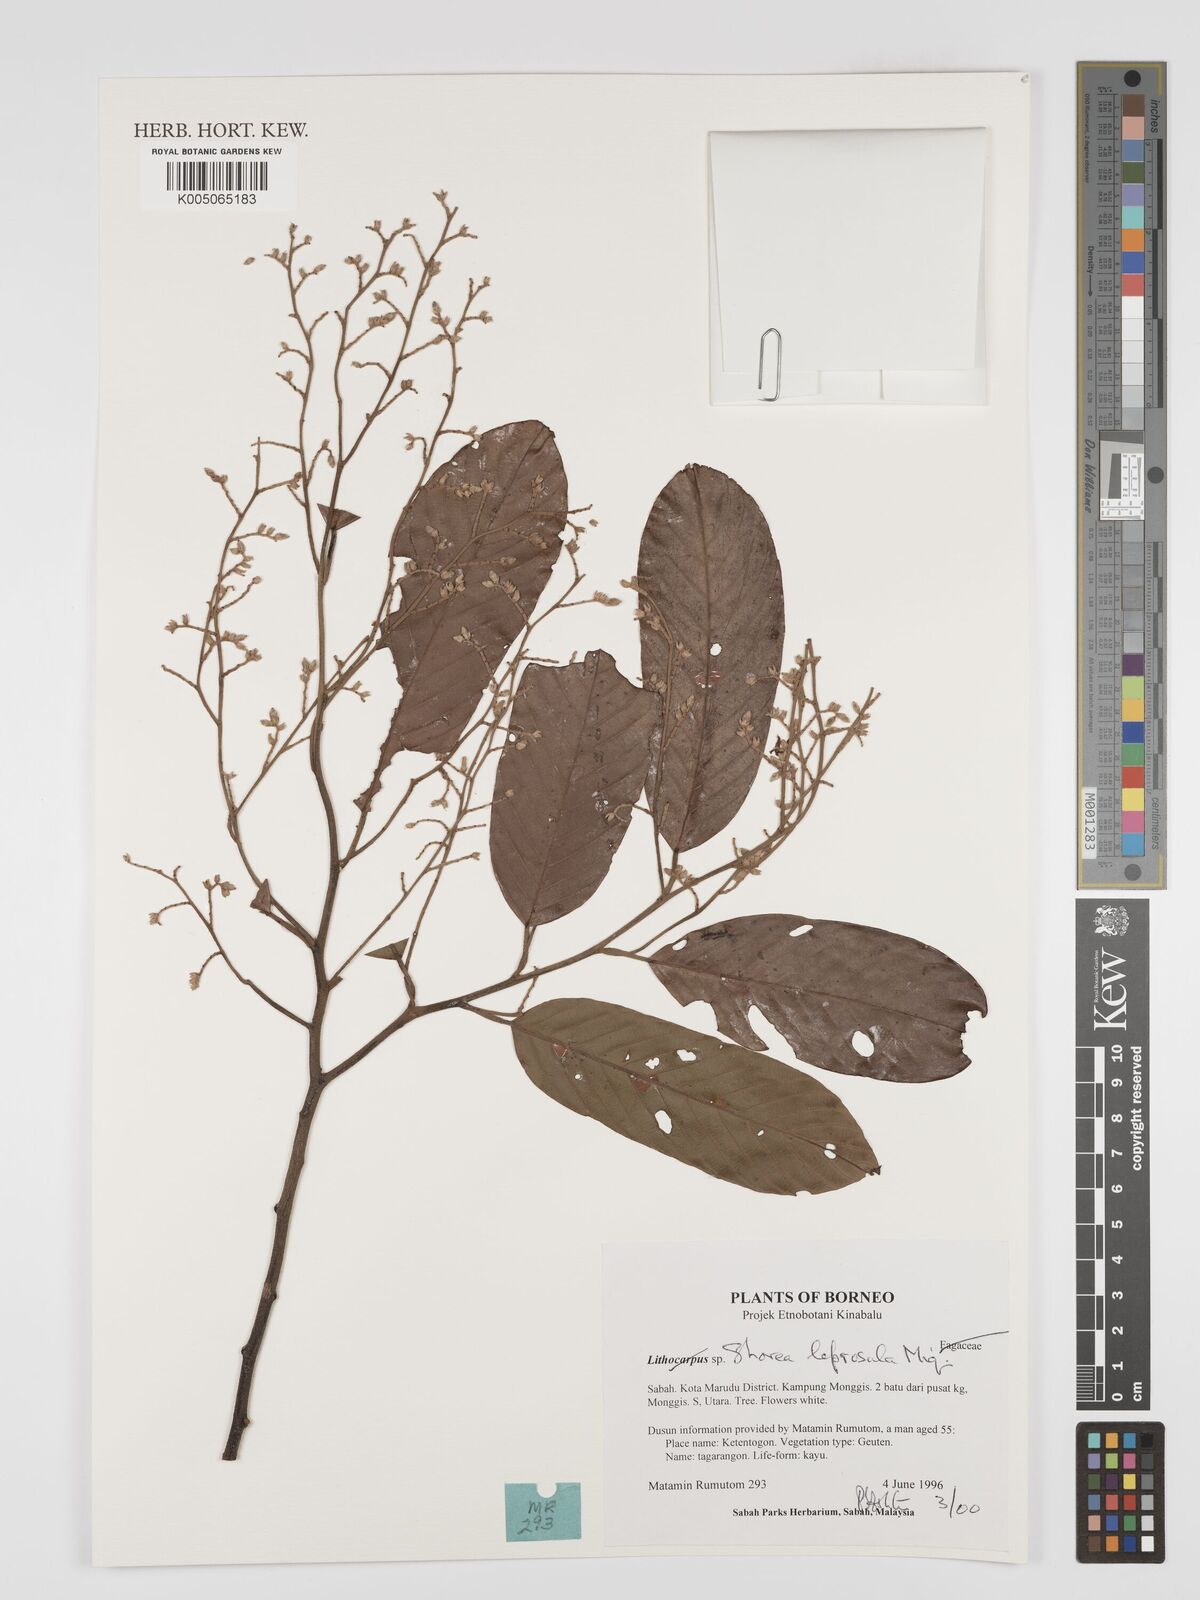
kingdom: Plantae
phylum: Tracheophyta
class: Magnoliopsida
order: Malvales
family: Dipterocarpaceae
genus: Shorea
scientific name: Shorea leprosula
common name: Light red meranti
